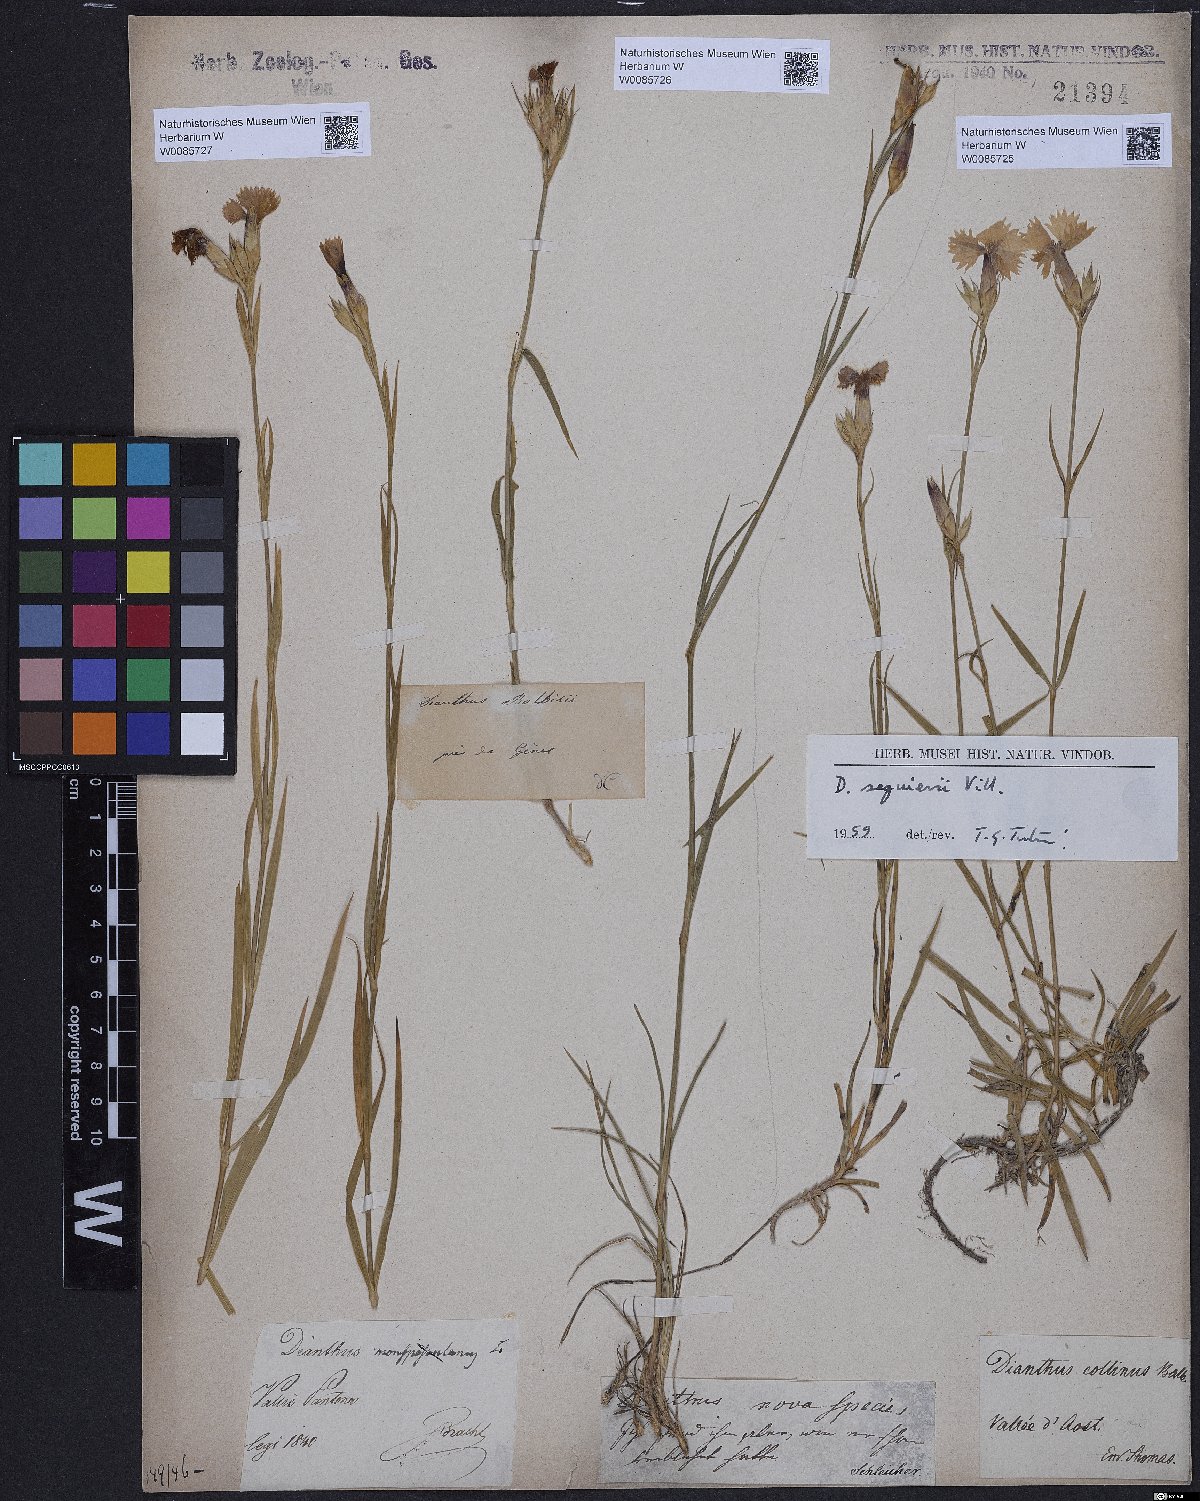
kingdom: Plantae
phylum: Tracheophyta
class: Magnoliopsida
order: Caryophyllales
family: Caryophyllaceae
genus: Dianthus
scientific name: Dianthus seguieri
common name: Ragged pink
